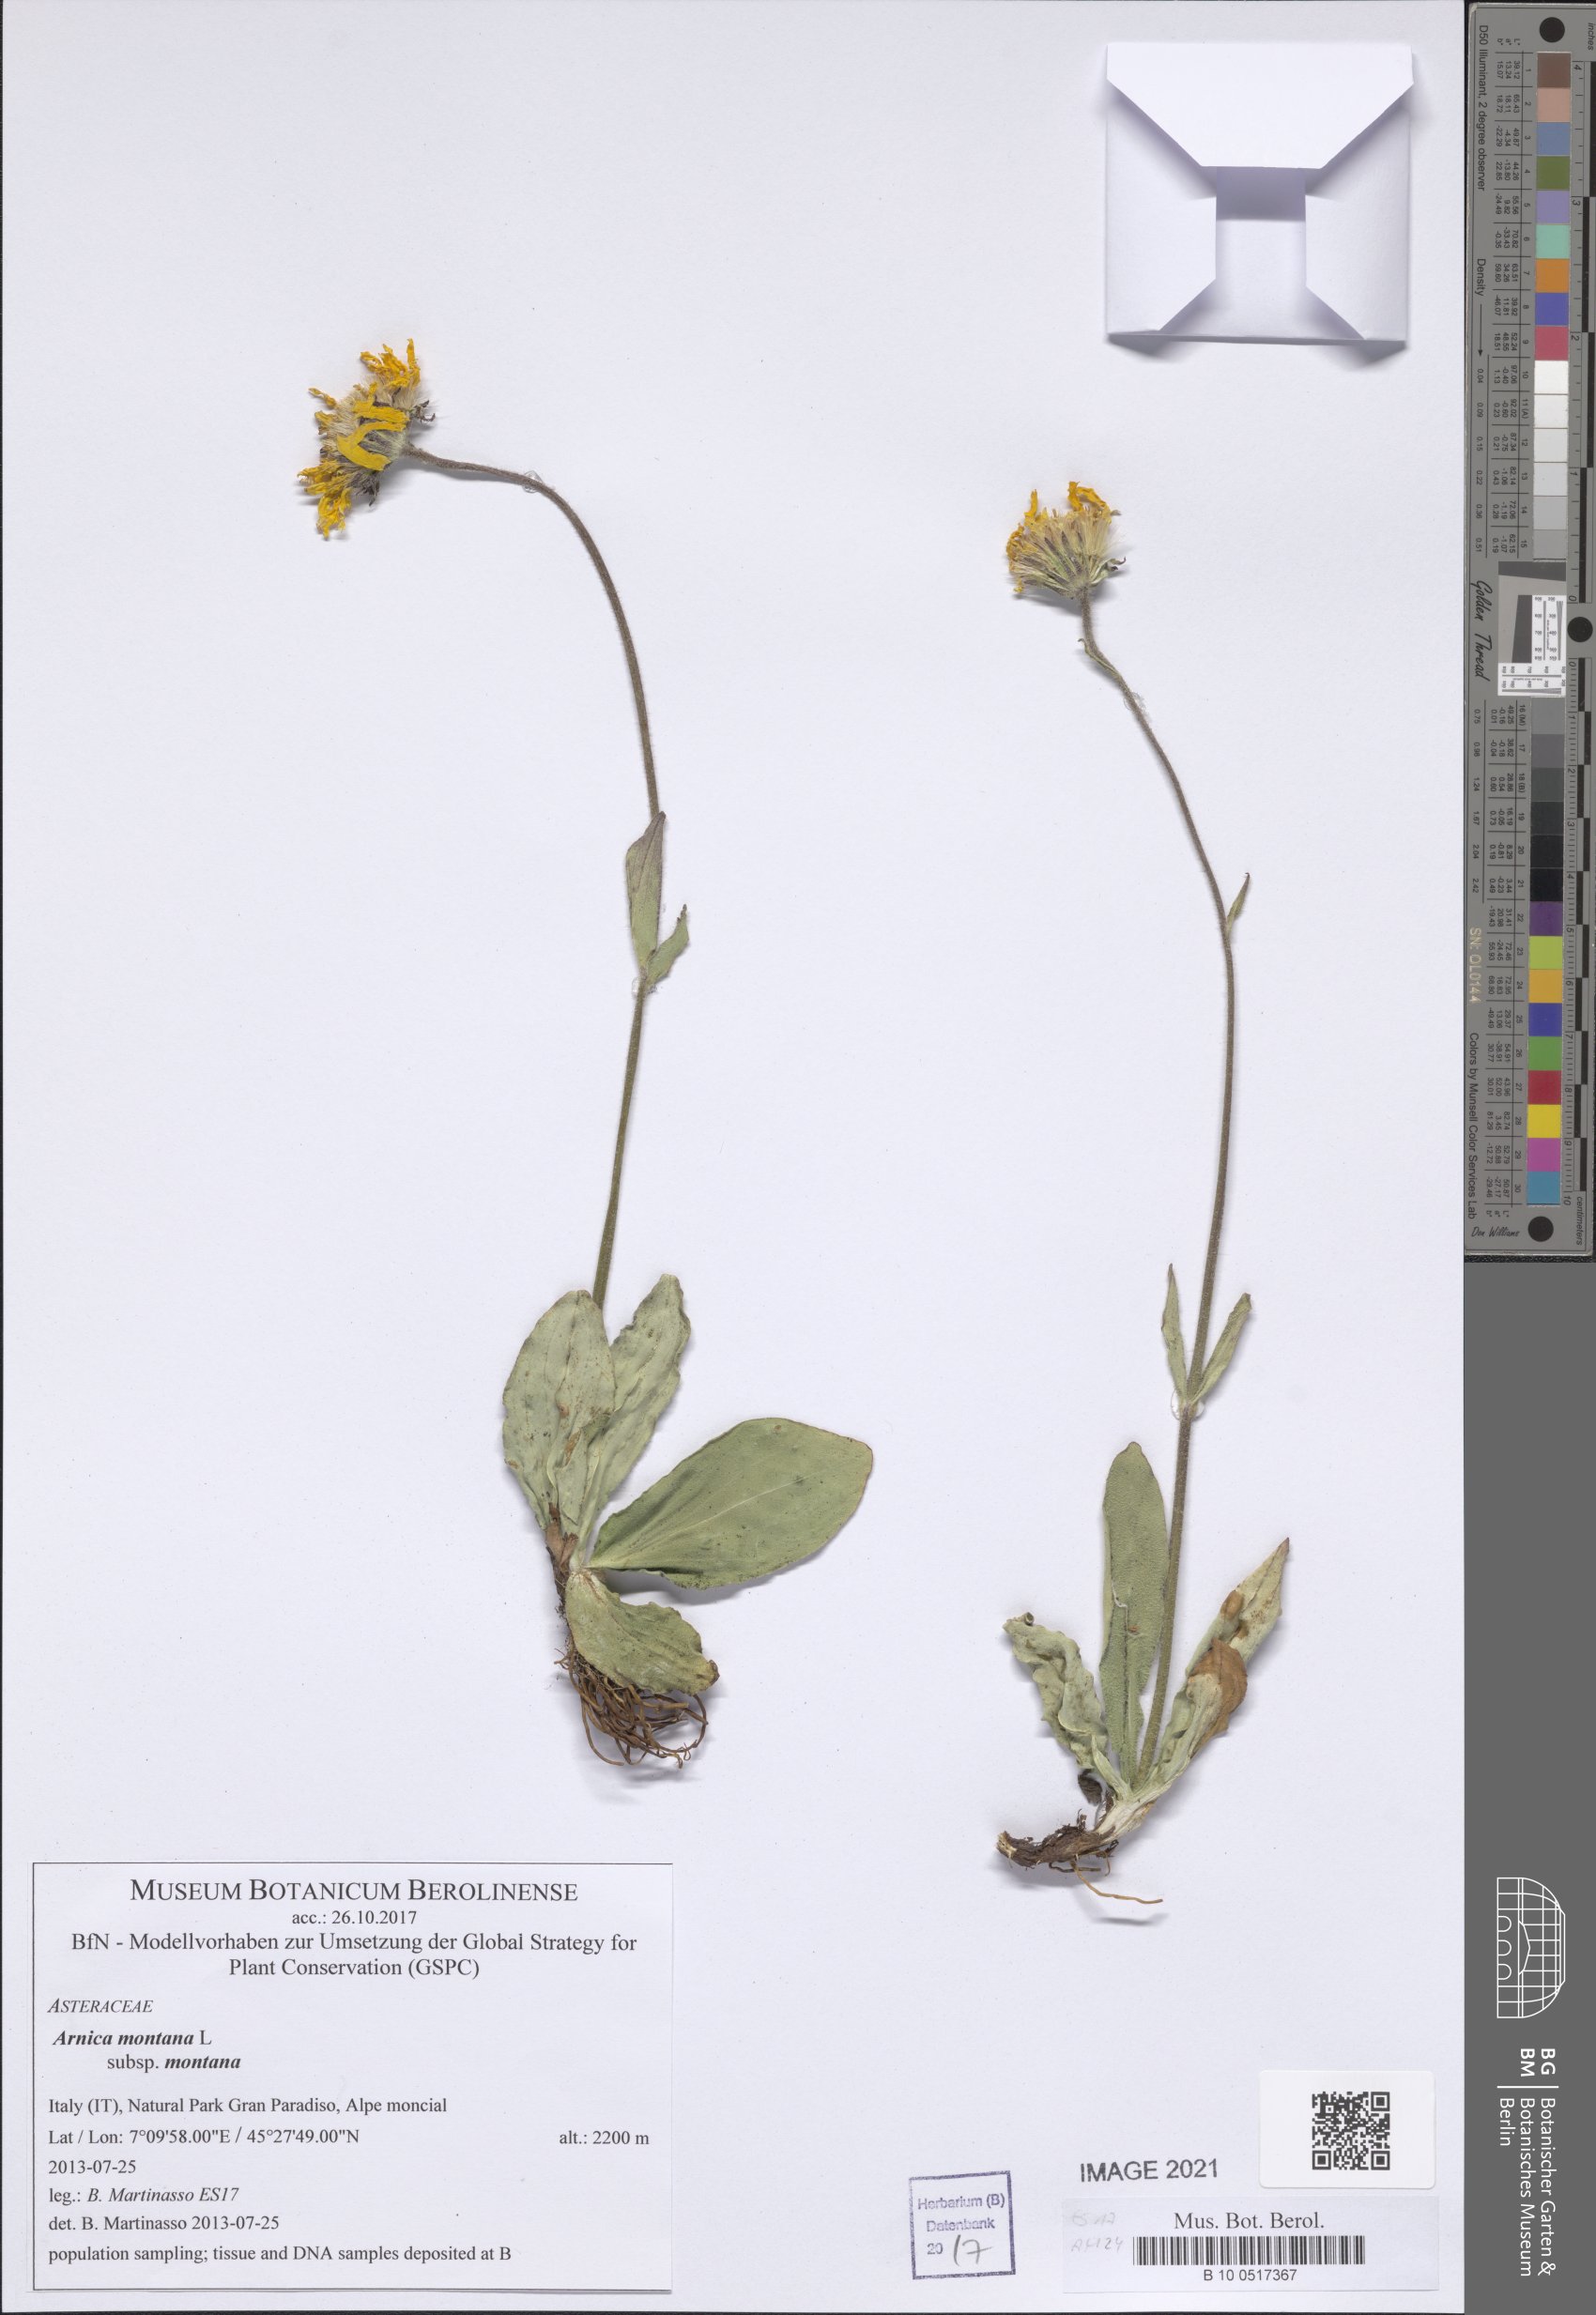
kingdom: Plantae
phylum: Tracheophyta
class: Magnoliopsida
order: Asterales
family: Asteraceae
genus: Arnica
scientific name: Arnica montana
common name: Leopard's bane
